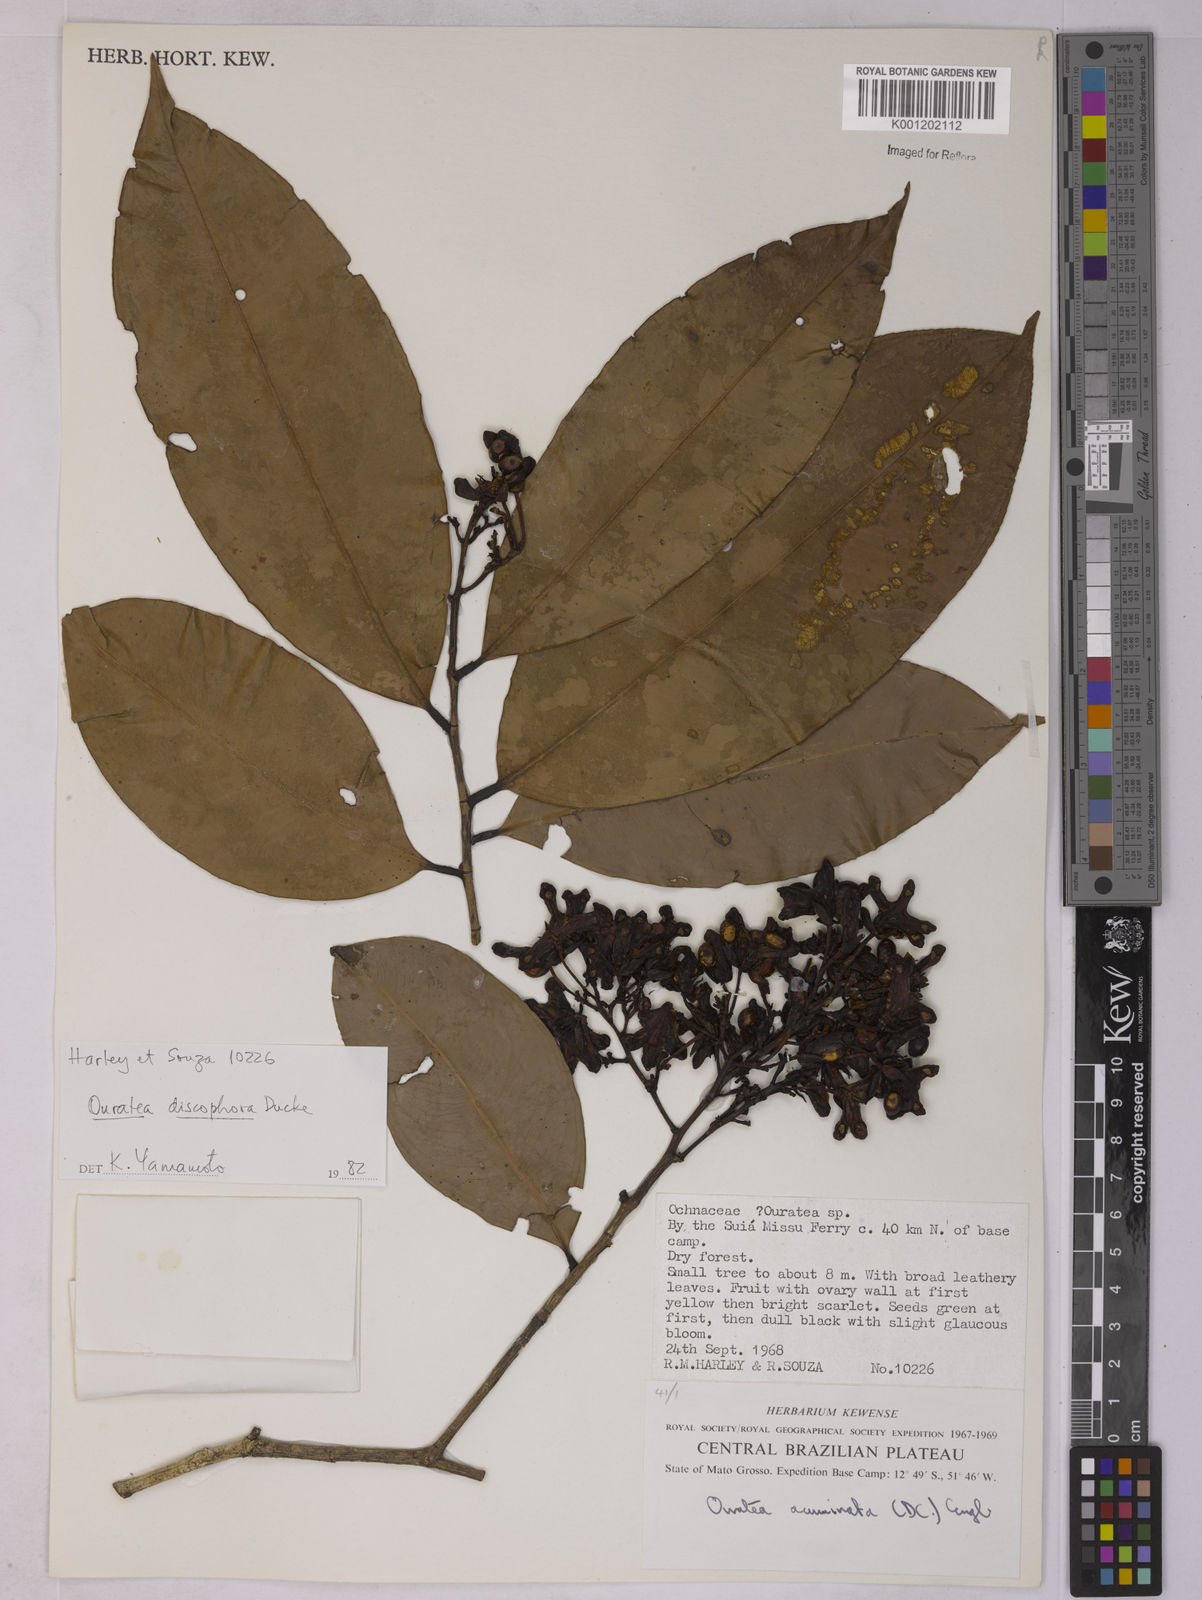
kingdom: Plantae
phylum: Tracheophyta
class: Magnoliopsida
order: Malpighiales
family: Ochnaceae
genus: Ouratea
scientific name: Ouratea discophora
